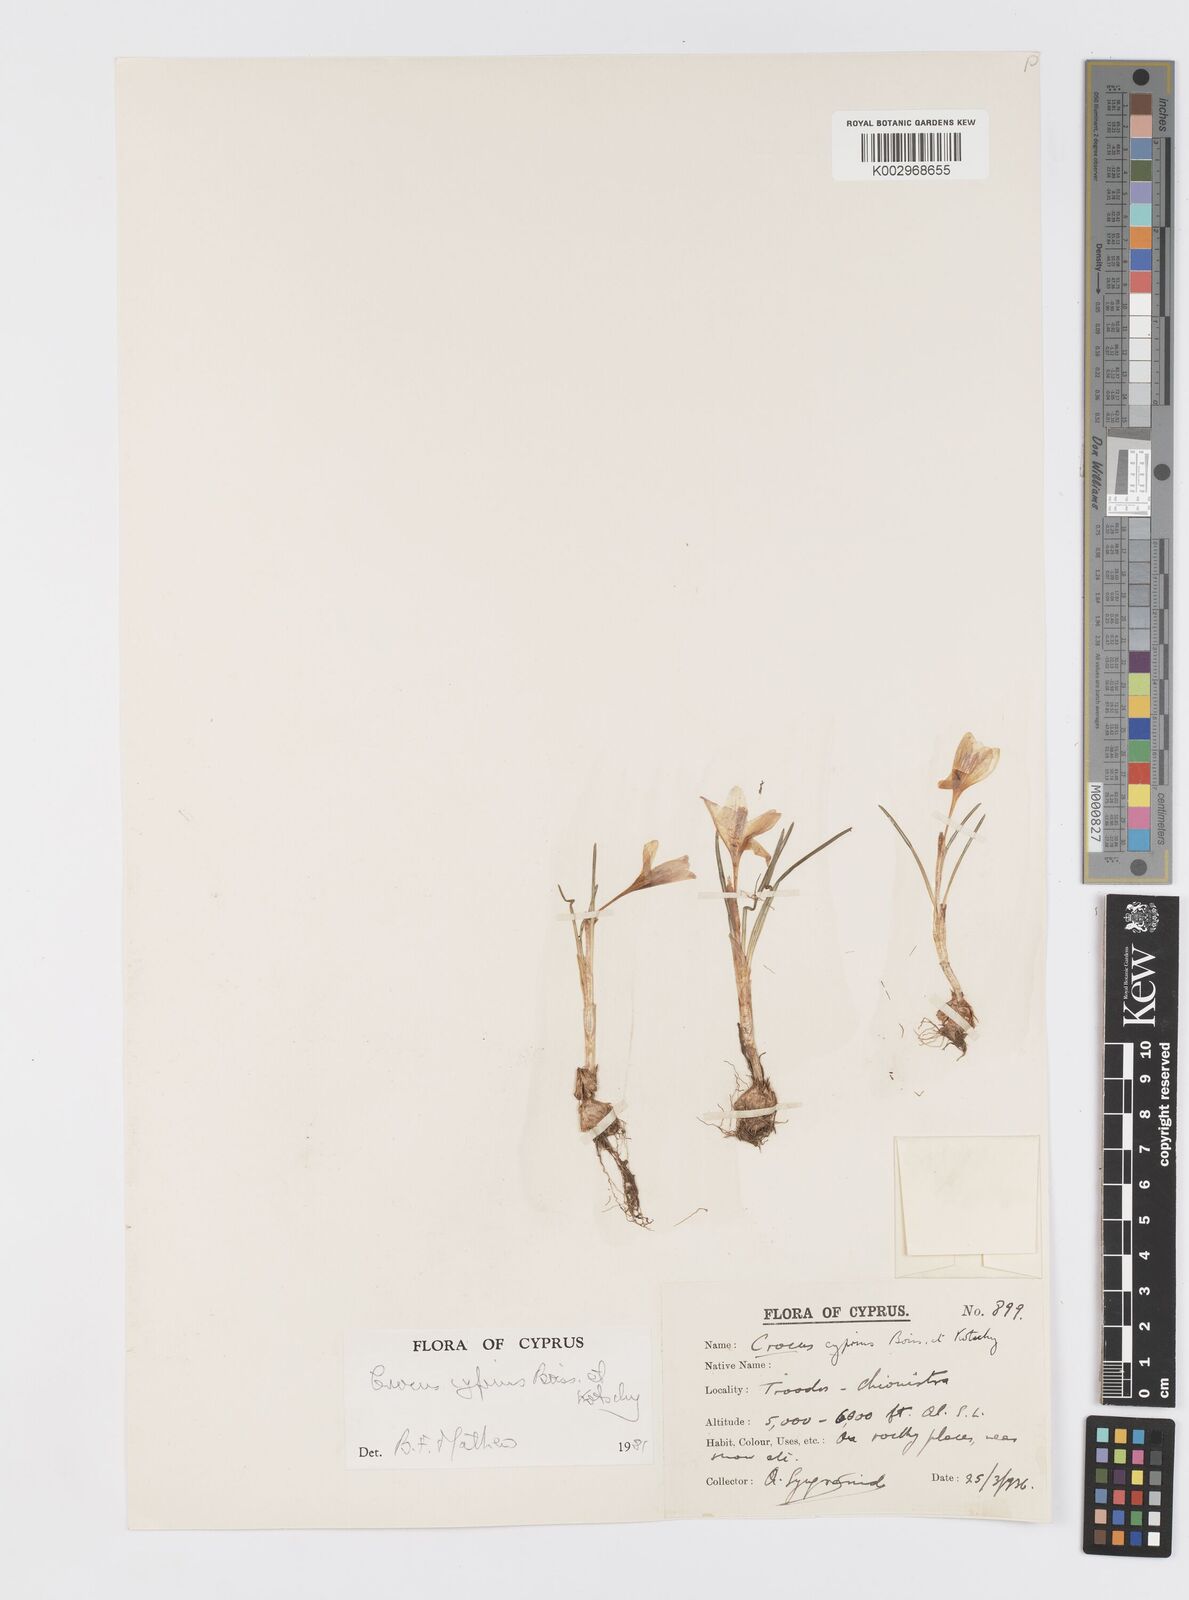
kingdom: Plantae
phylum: Tracheophyta
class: Liliopsida
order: Asparagales
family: Iridaceae
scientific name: Iridaceae
